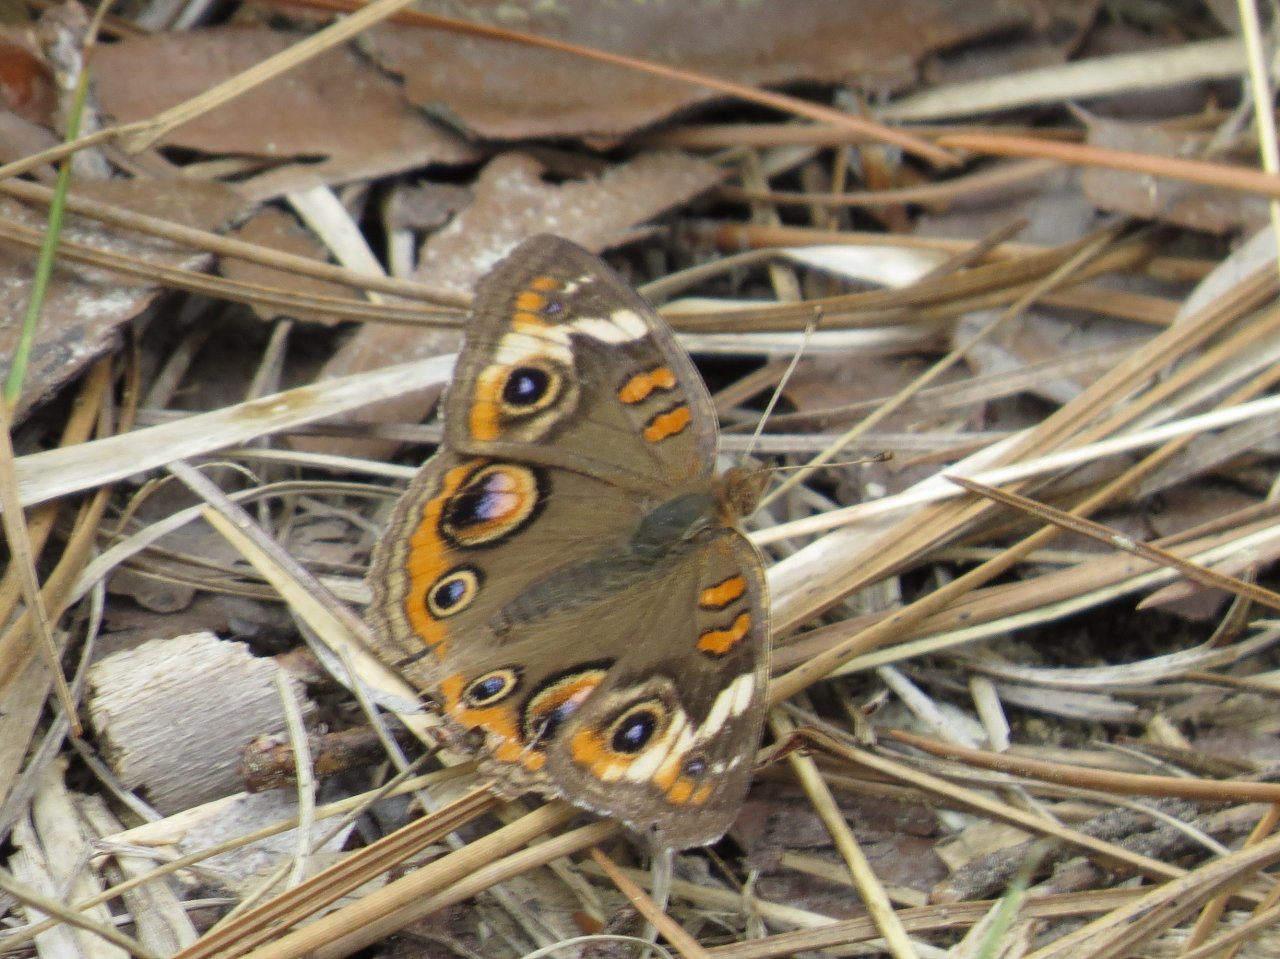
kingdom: Animalia
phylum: Arthropoda
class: Insecta
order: Lepidoptera
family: Nymphalidae
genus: Junonia
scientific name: Junonia coenia
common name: Common Buckeye
